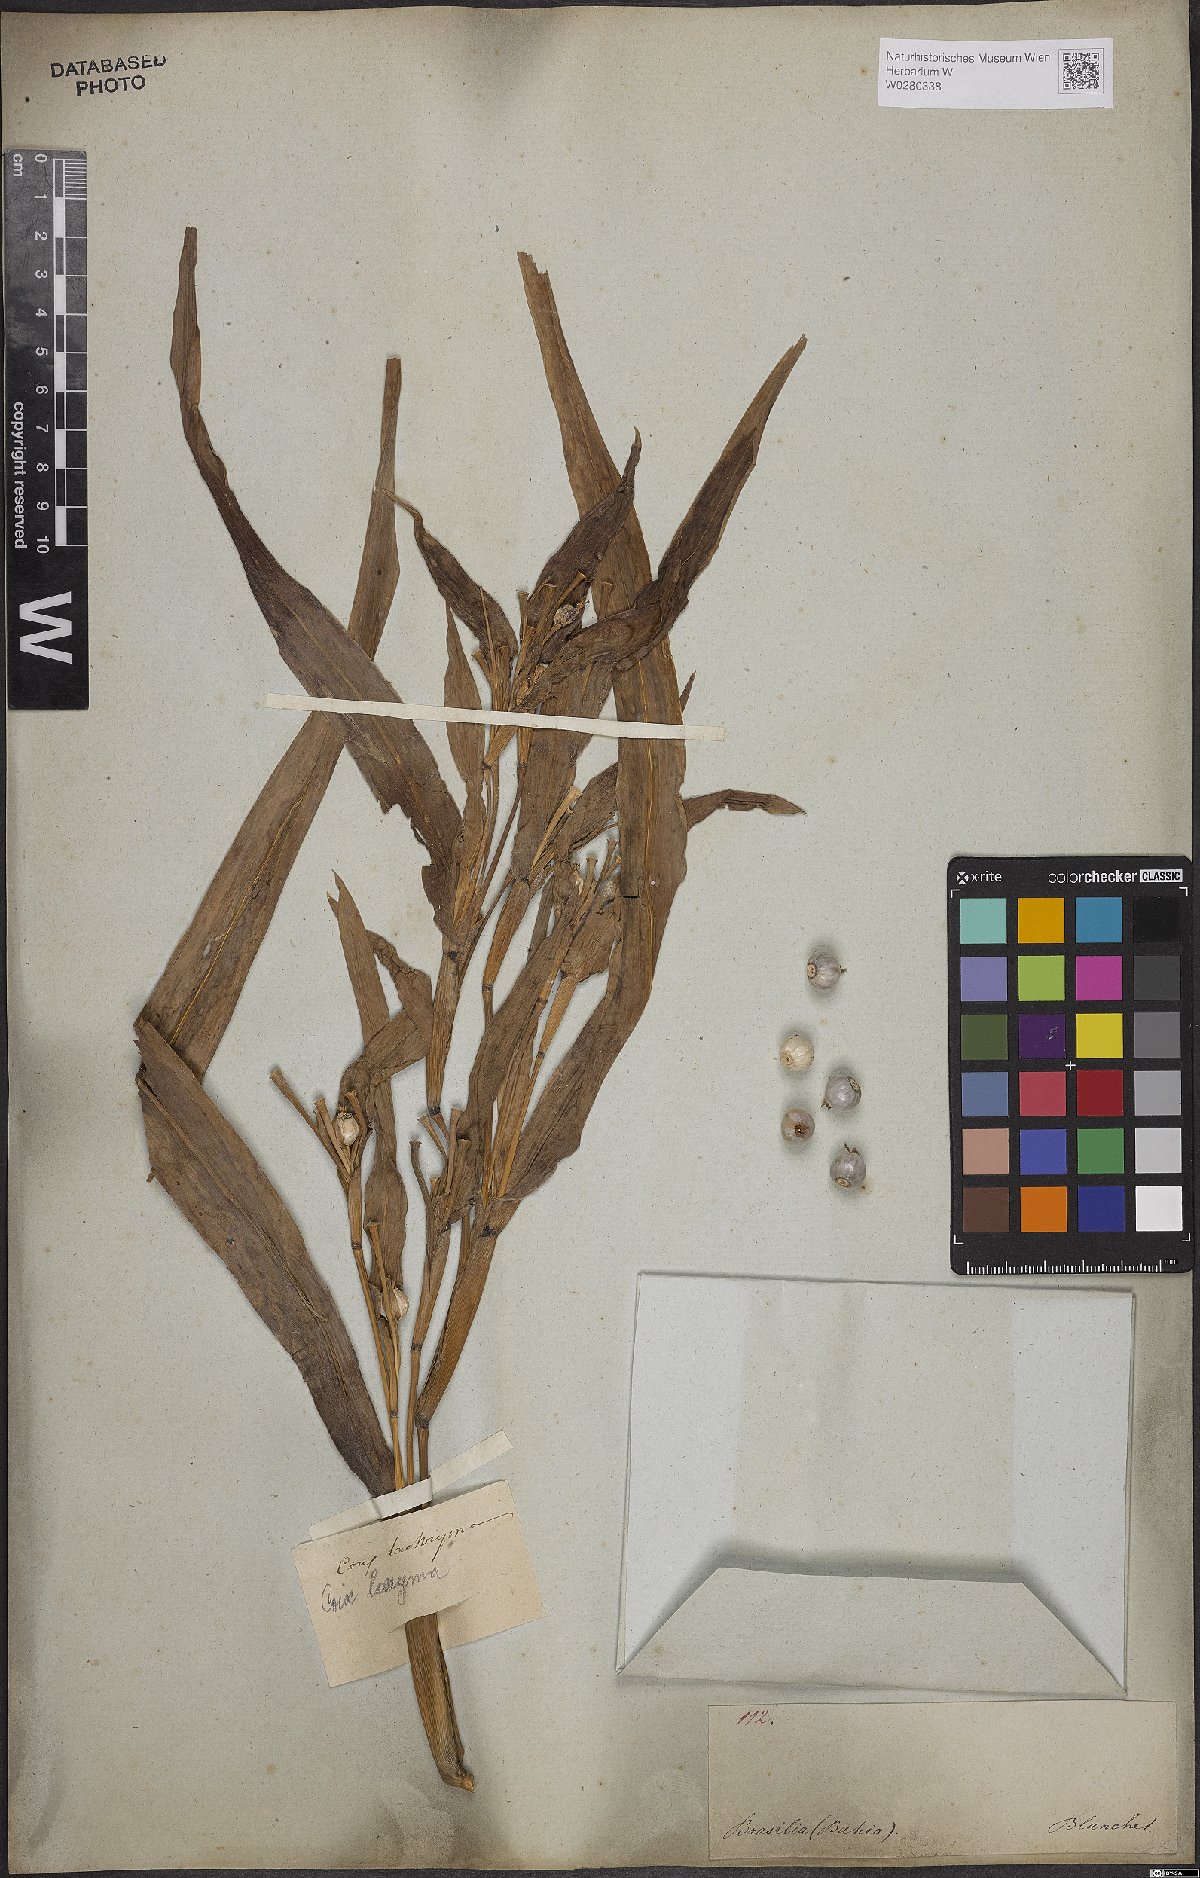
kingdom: Plantae
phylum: Tracheophyta
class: Liliopsida
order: Poales
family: Poaceae
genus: Coix
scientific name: Coix lacryma-jobi
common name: Job's tears
